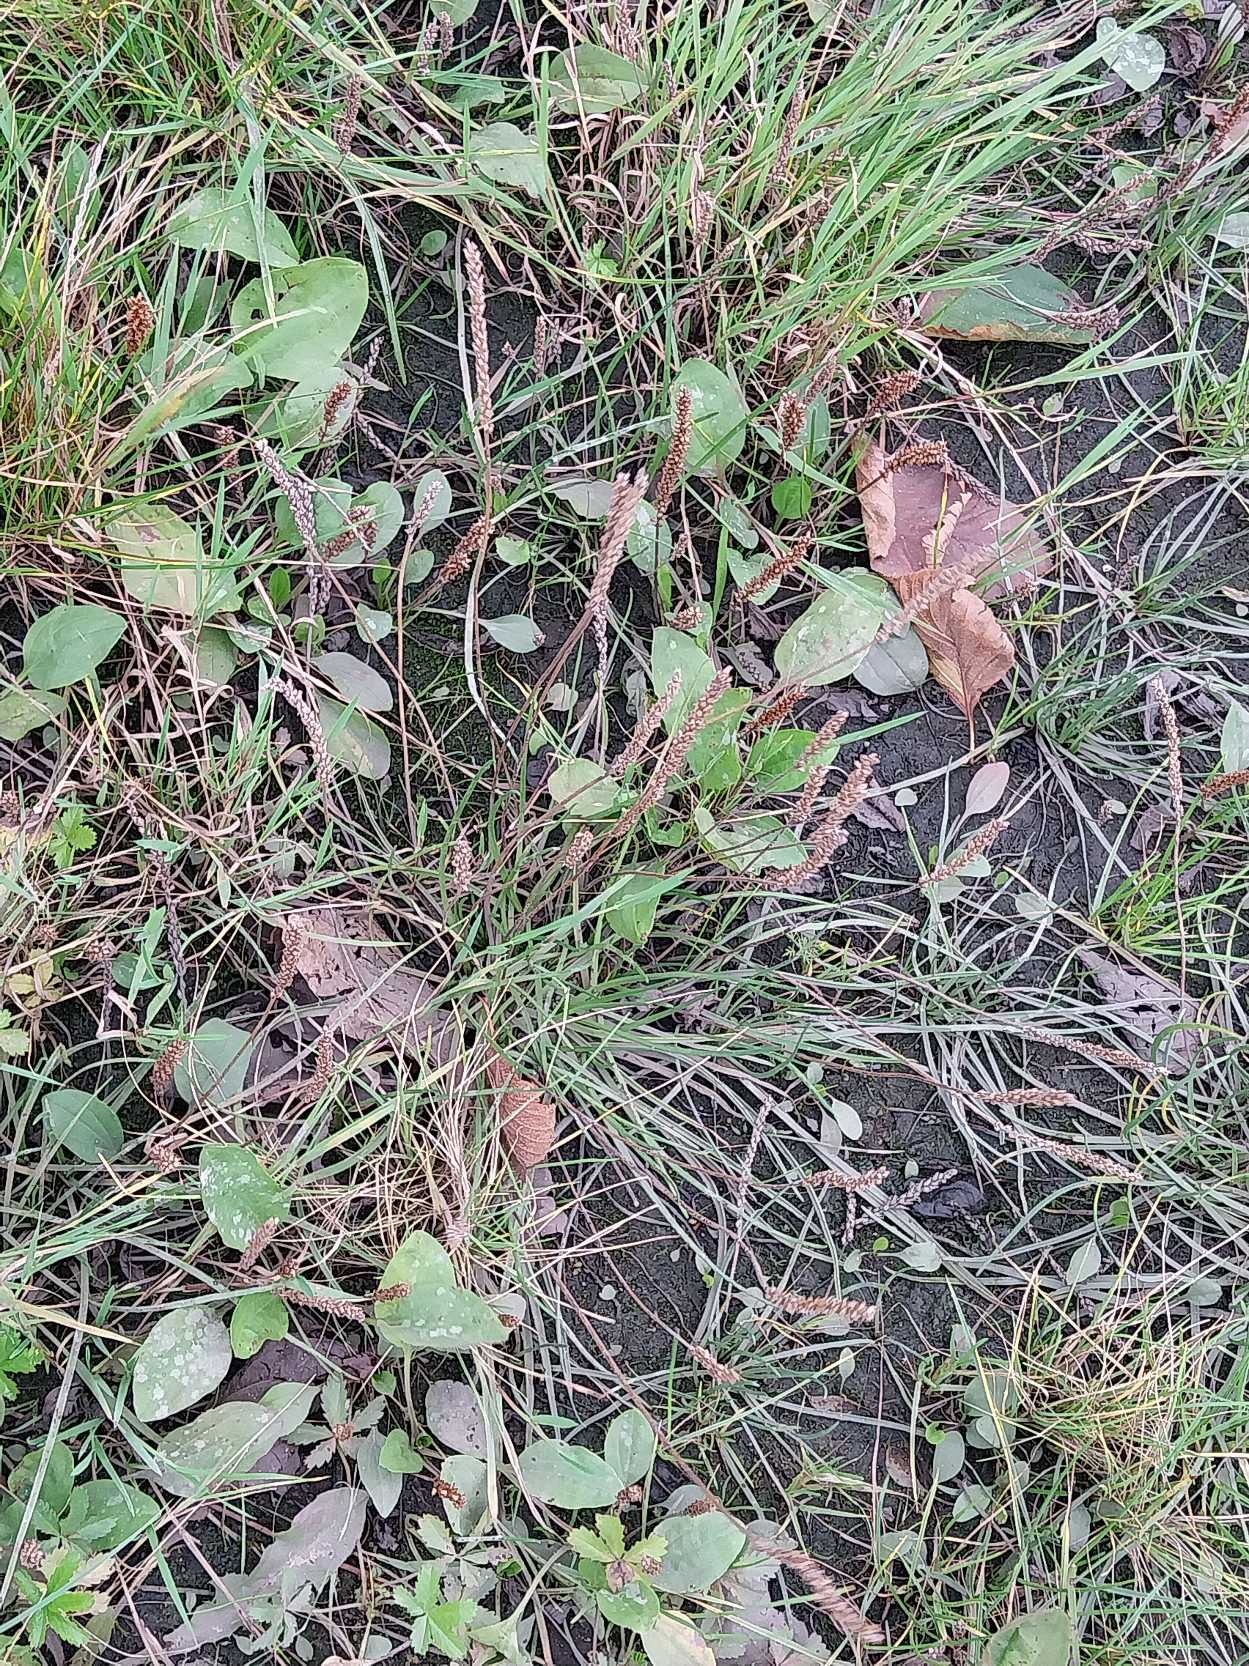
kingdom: Plantae
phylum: Tracheophyta
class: Magnoliopsida
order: Lamiales
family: Plantaginaceae
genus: Plantago
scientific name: Plantago maritima
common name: Strand-vejbred
